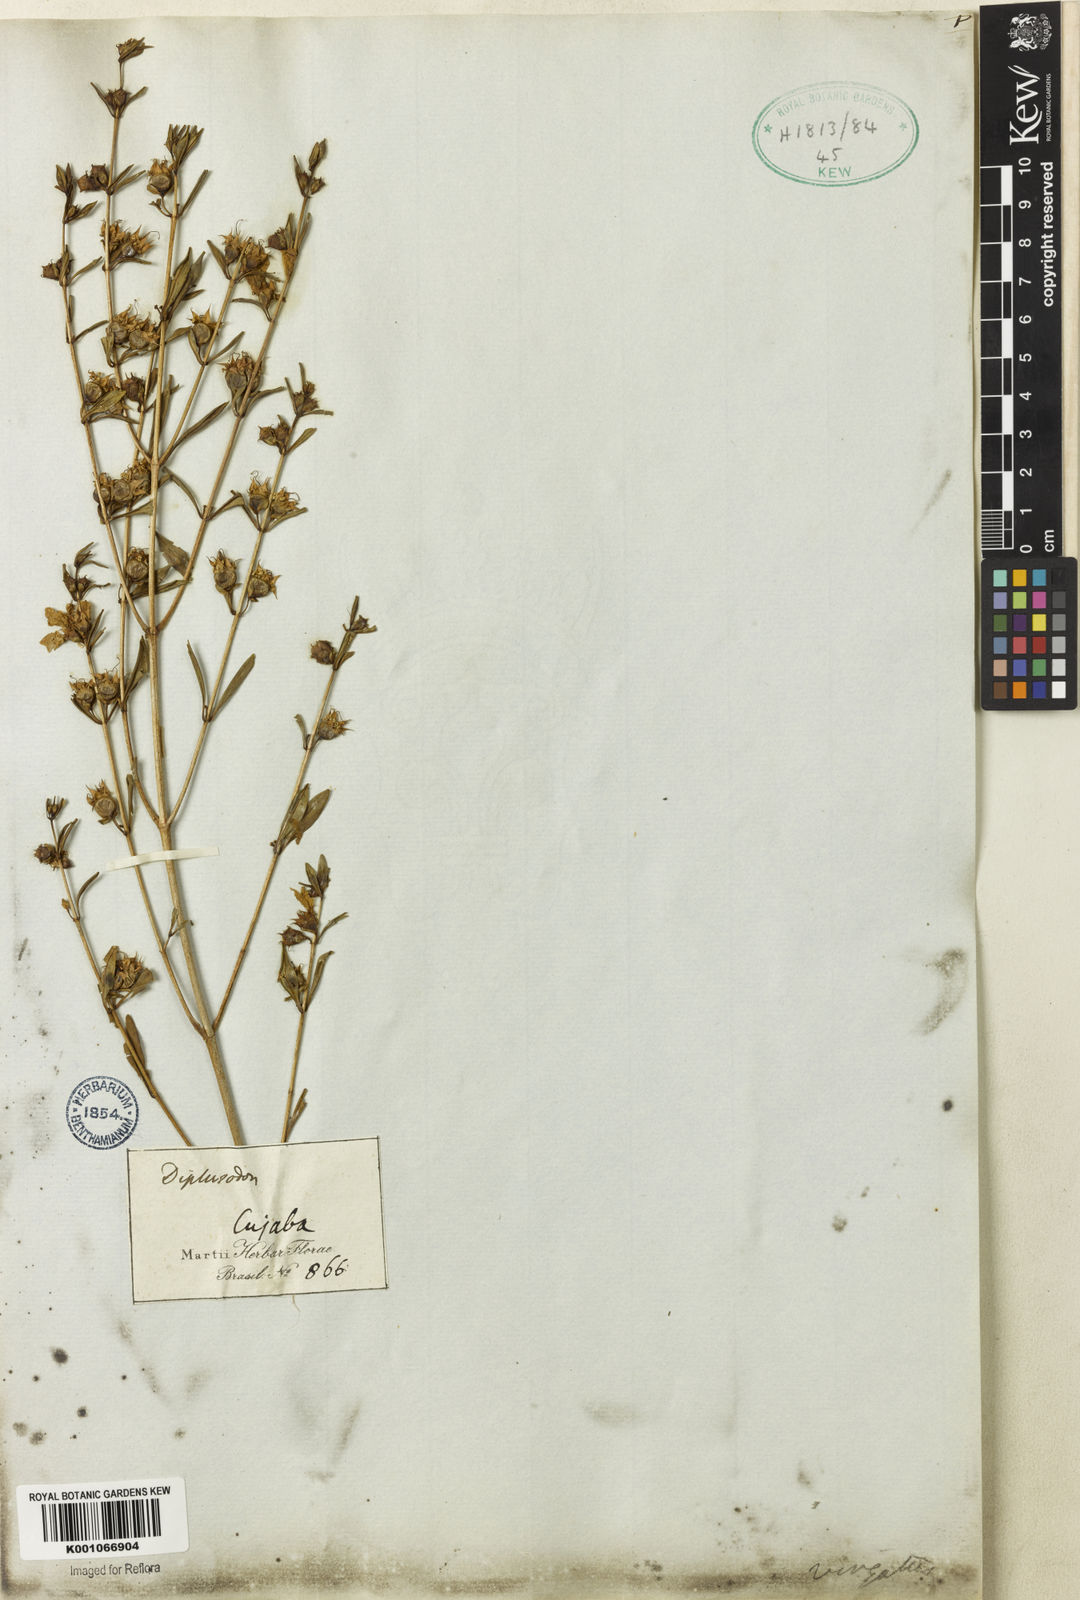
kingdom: Plantae
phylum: Tracheophyta
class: Magnoliopsida
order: Myrtales
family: Lythraceae
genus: Diplusodon
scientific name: Diplusodon virgatus
